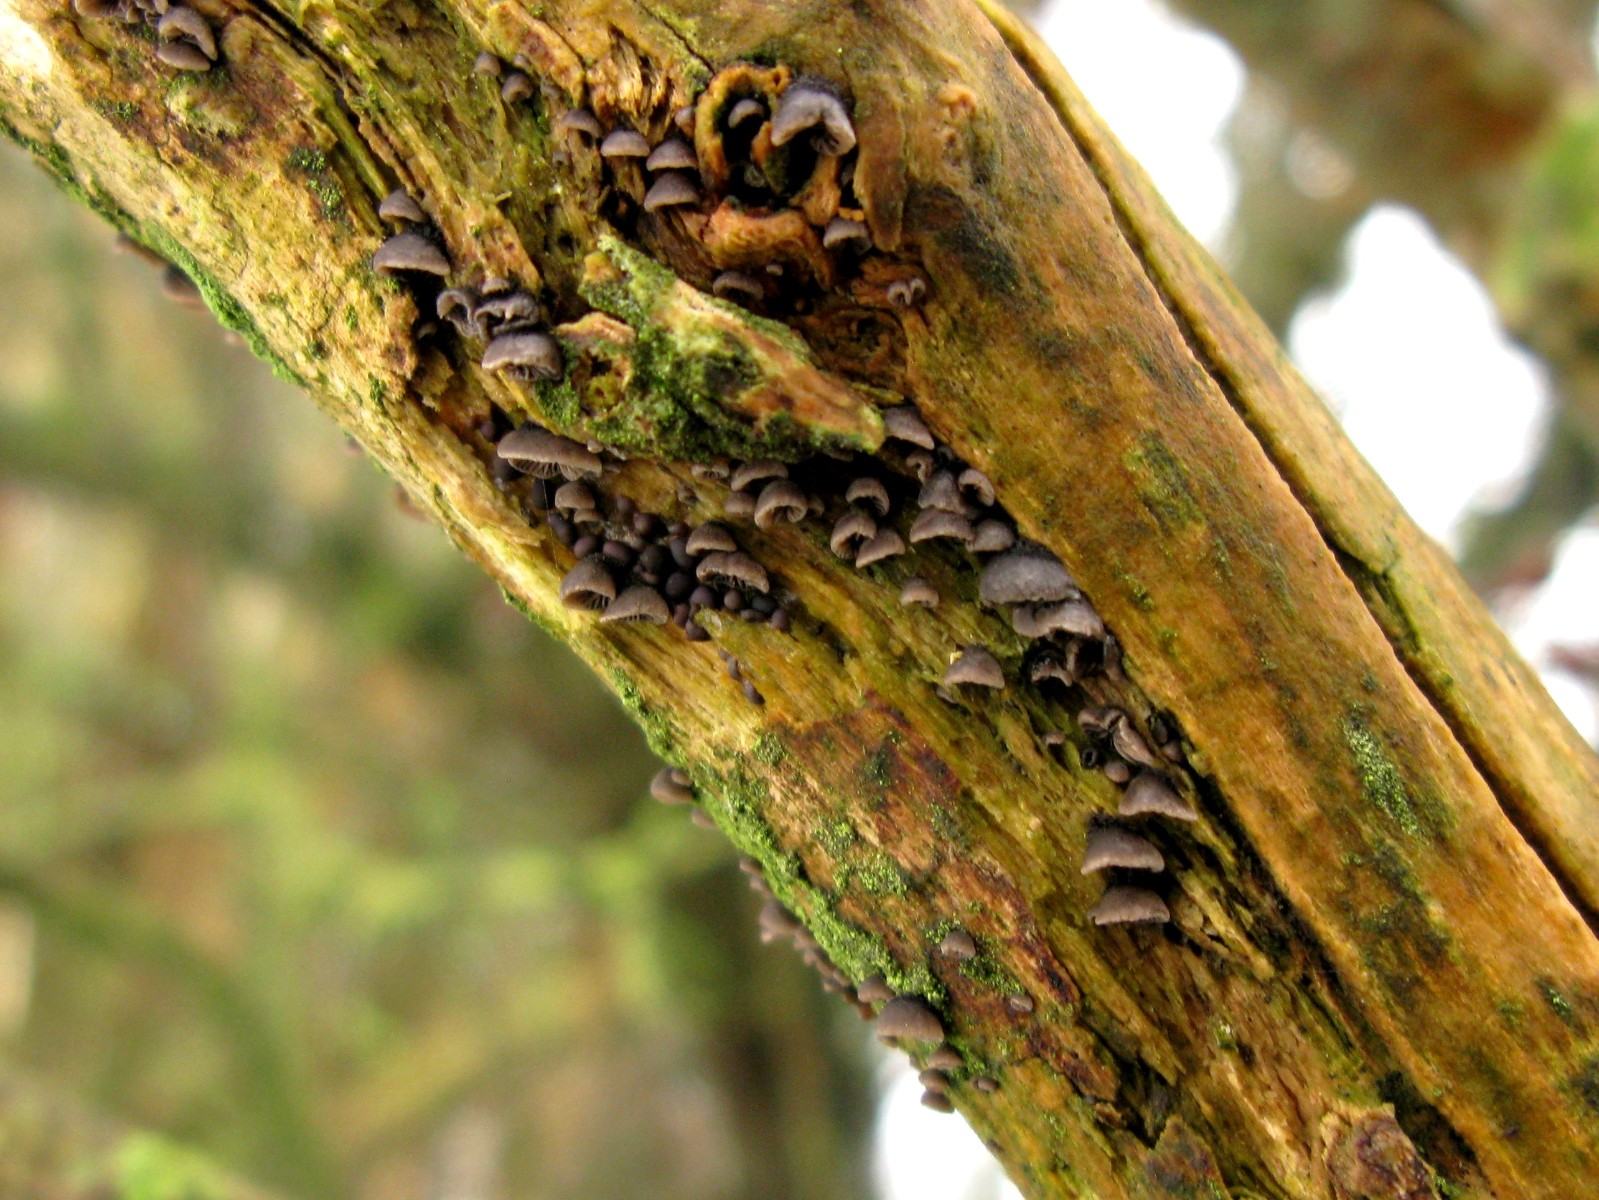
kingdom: Fungi
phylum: Basidiomycota
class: Agaricomycetes
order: Agaricales
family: Pleurotaceae
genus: Resupinatus
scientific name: Resupinatus trichotis
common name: mørkfiltet barkhat
